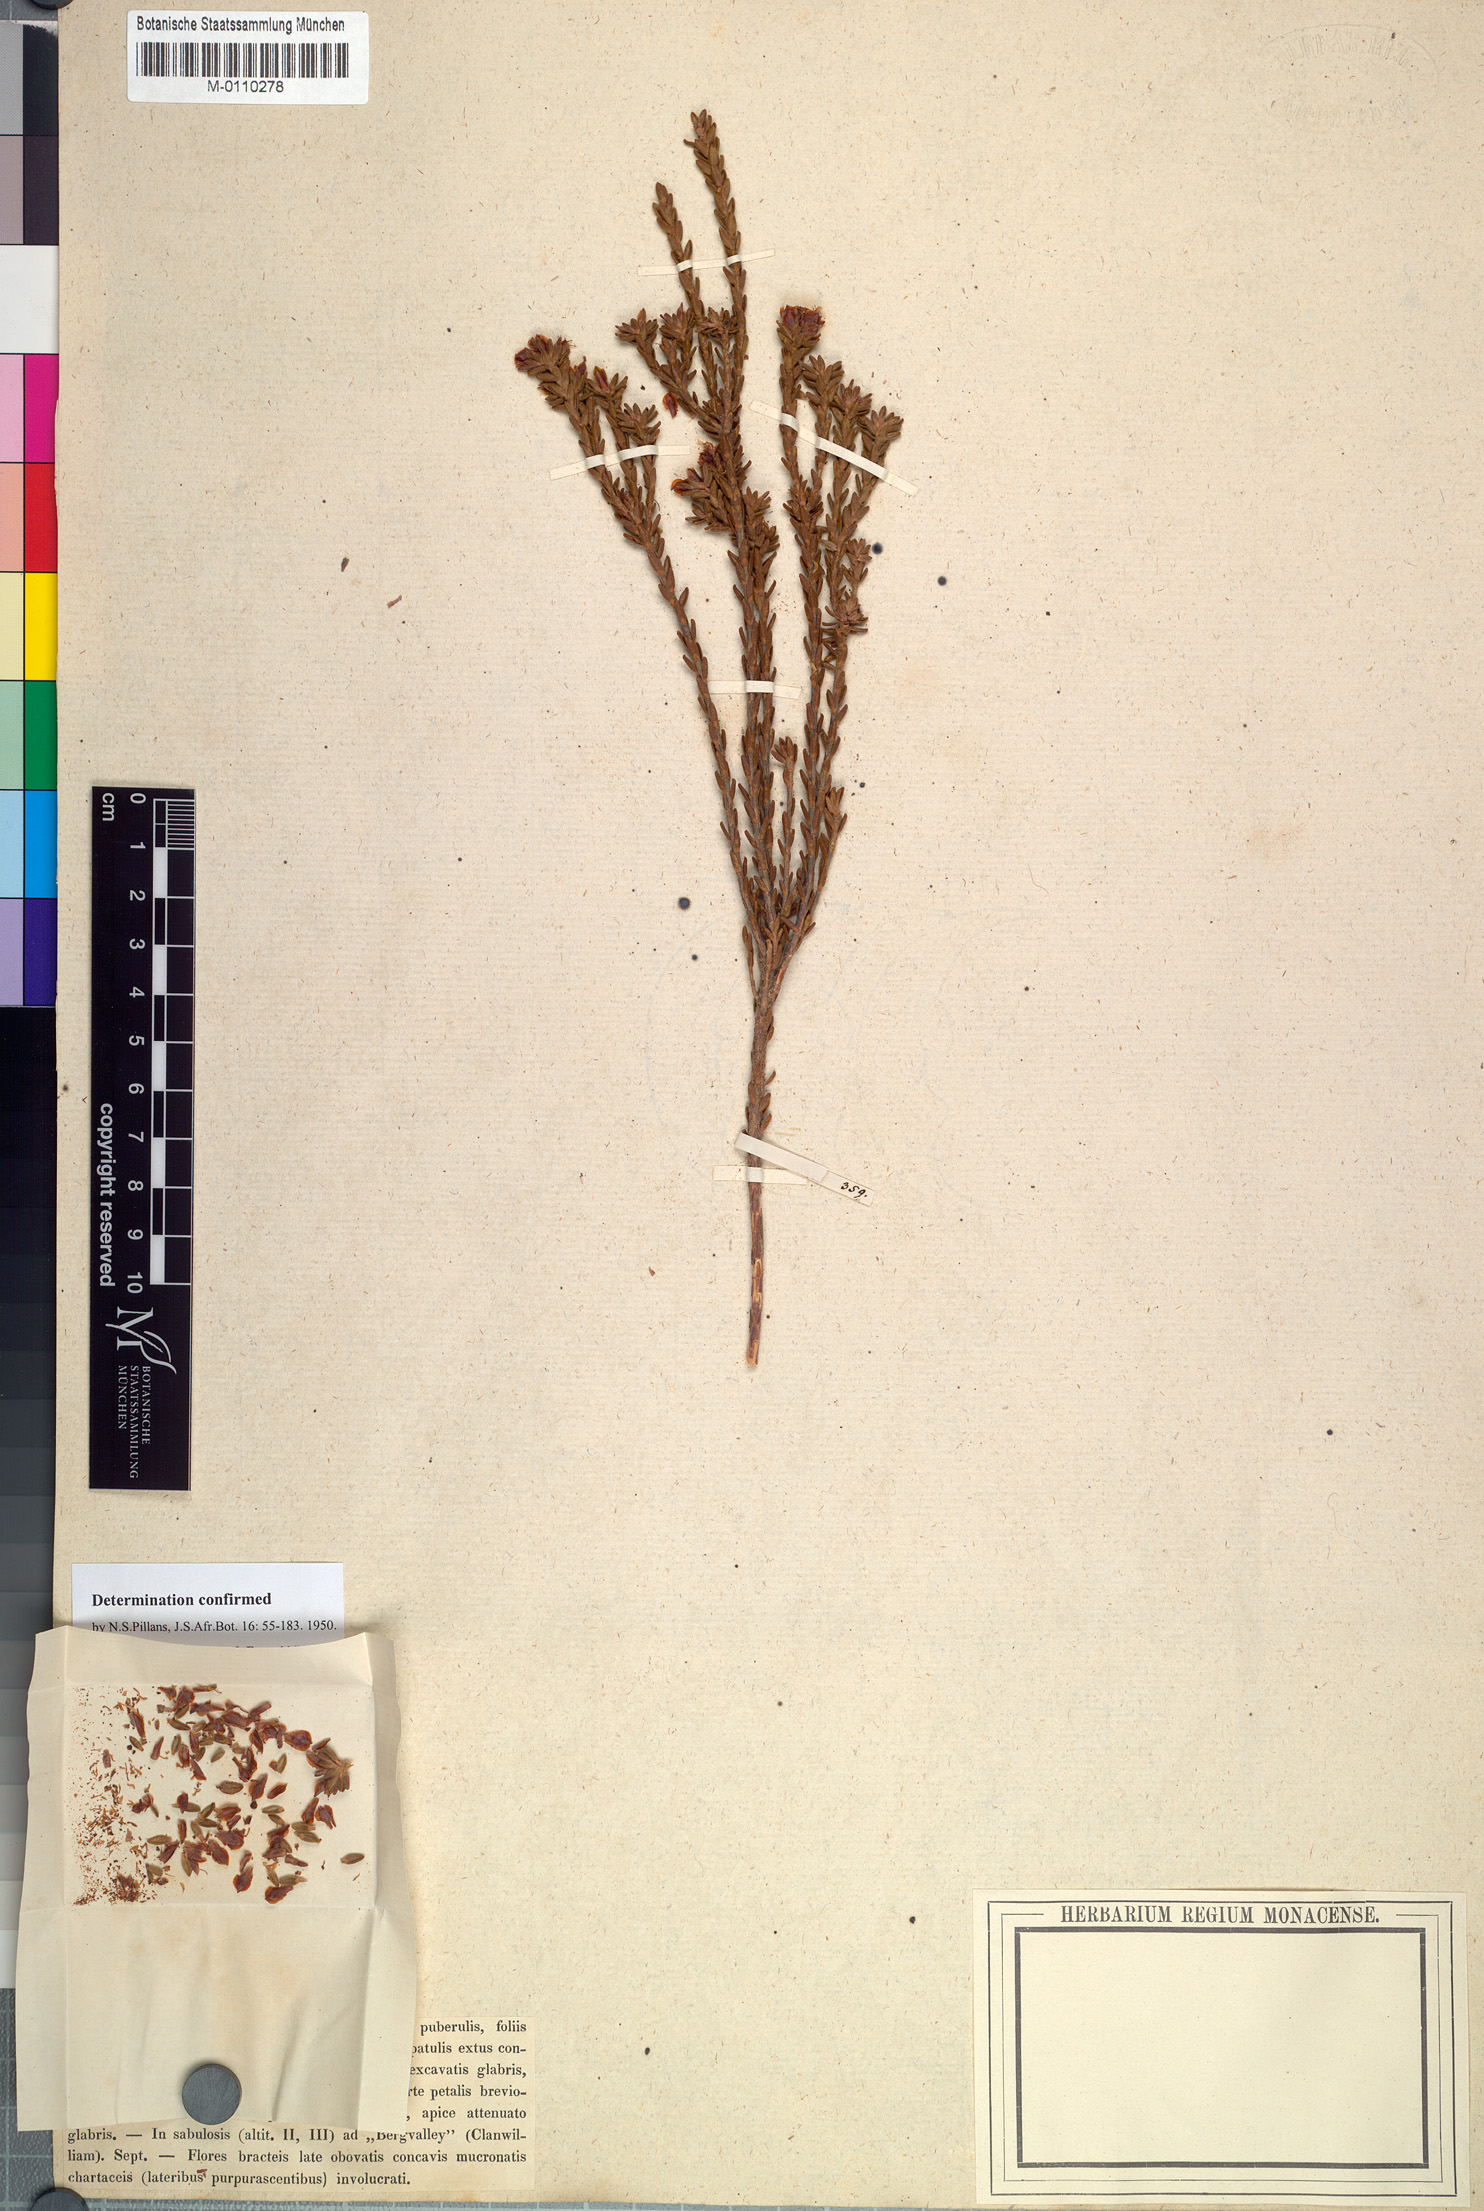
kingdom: Plantae
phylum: Tracheophyta
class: Magnoliopsida
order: Sapindales
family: Rutaceae
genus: Agathosma
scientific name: Agathosma involucrata
